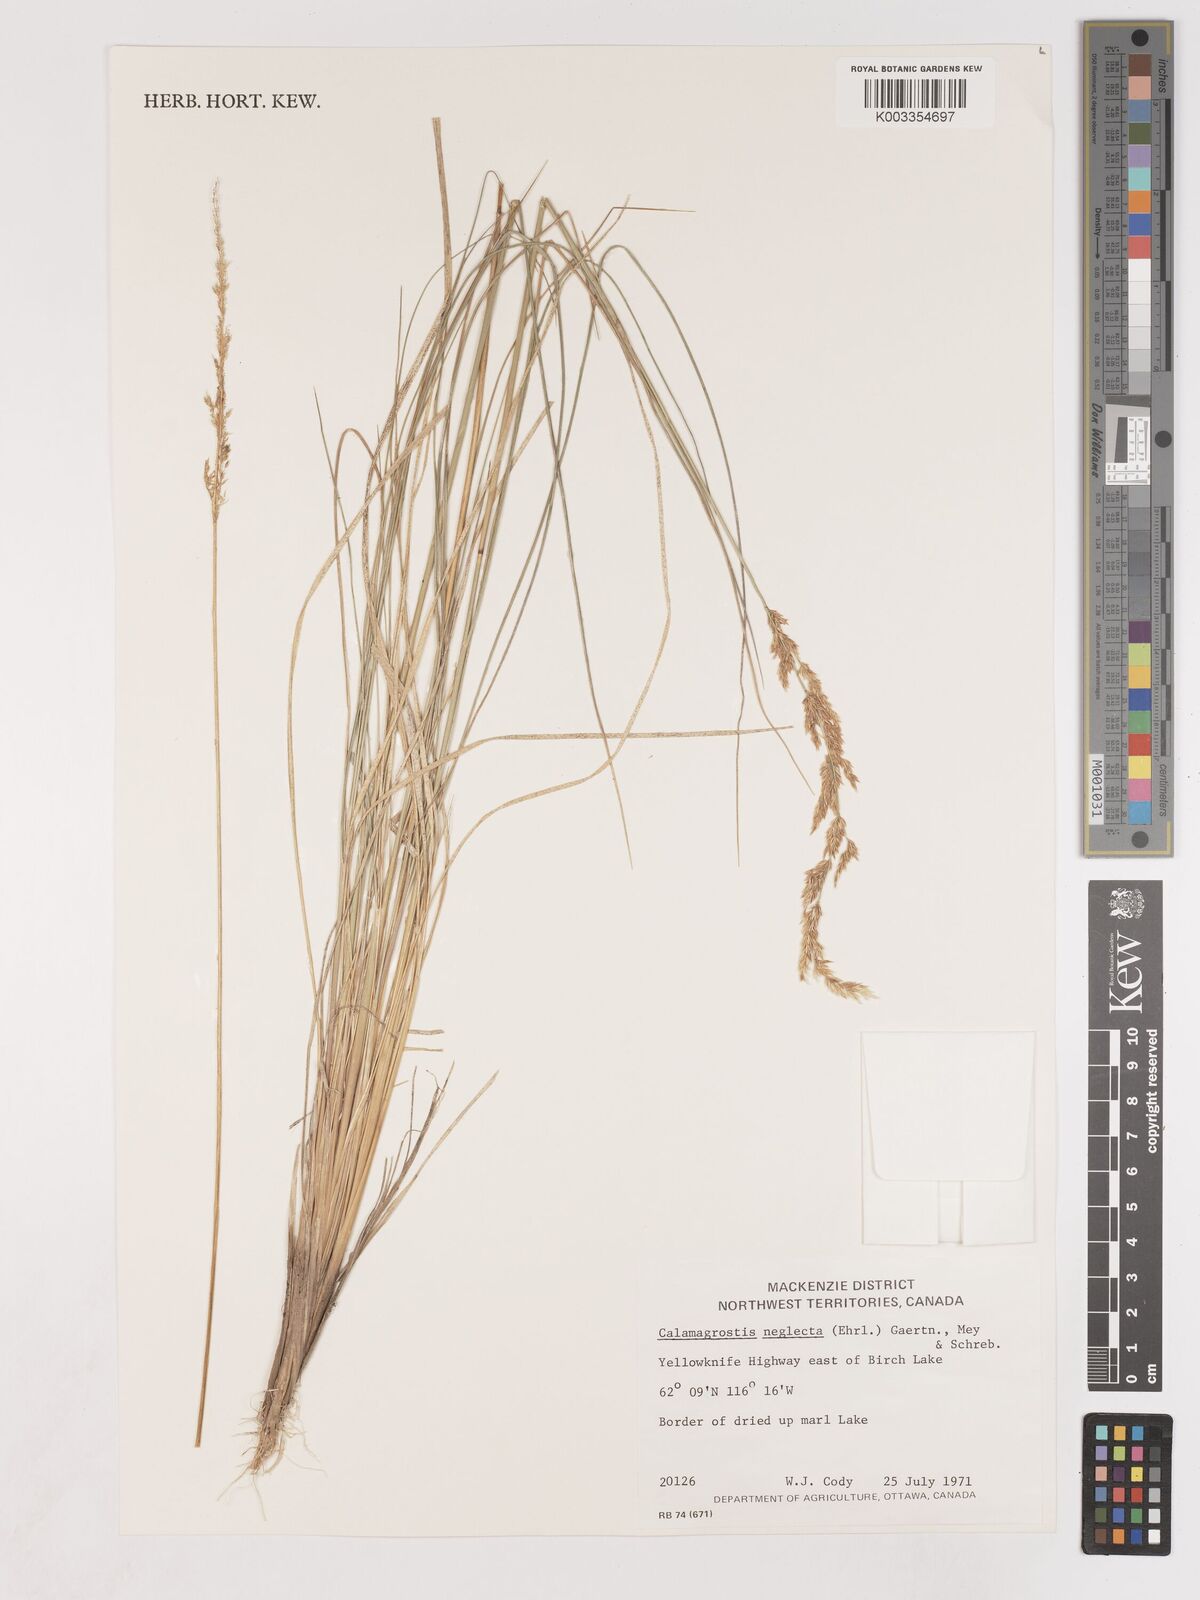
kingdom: Plantae
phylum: Tracheophyta
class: Liliopsida
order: Poales
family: Poaceae
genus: Cinnagrostis
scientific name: Cinnagrostis recta
